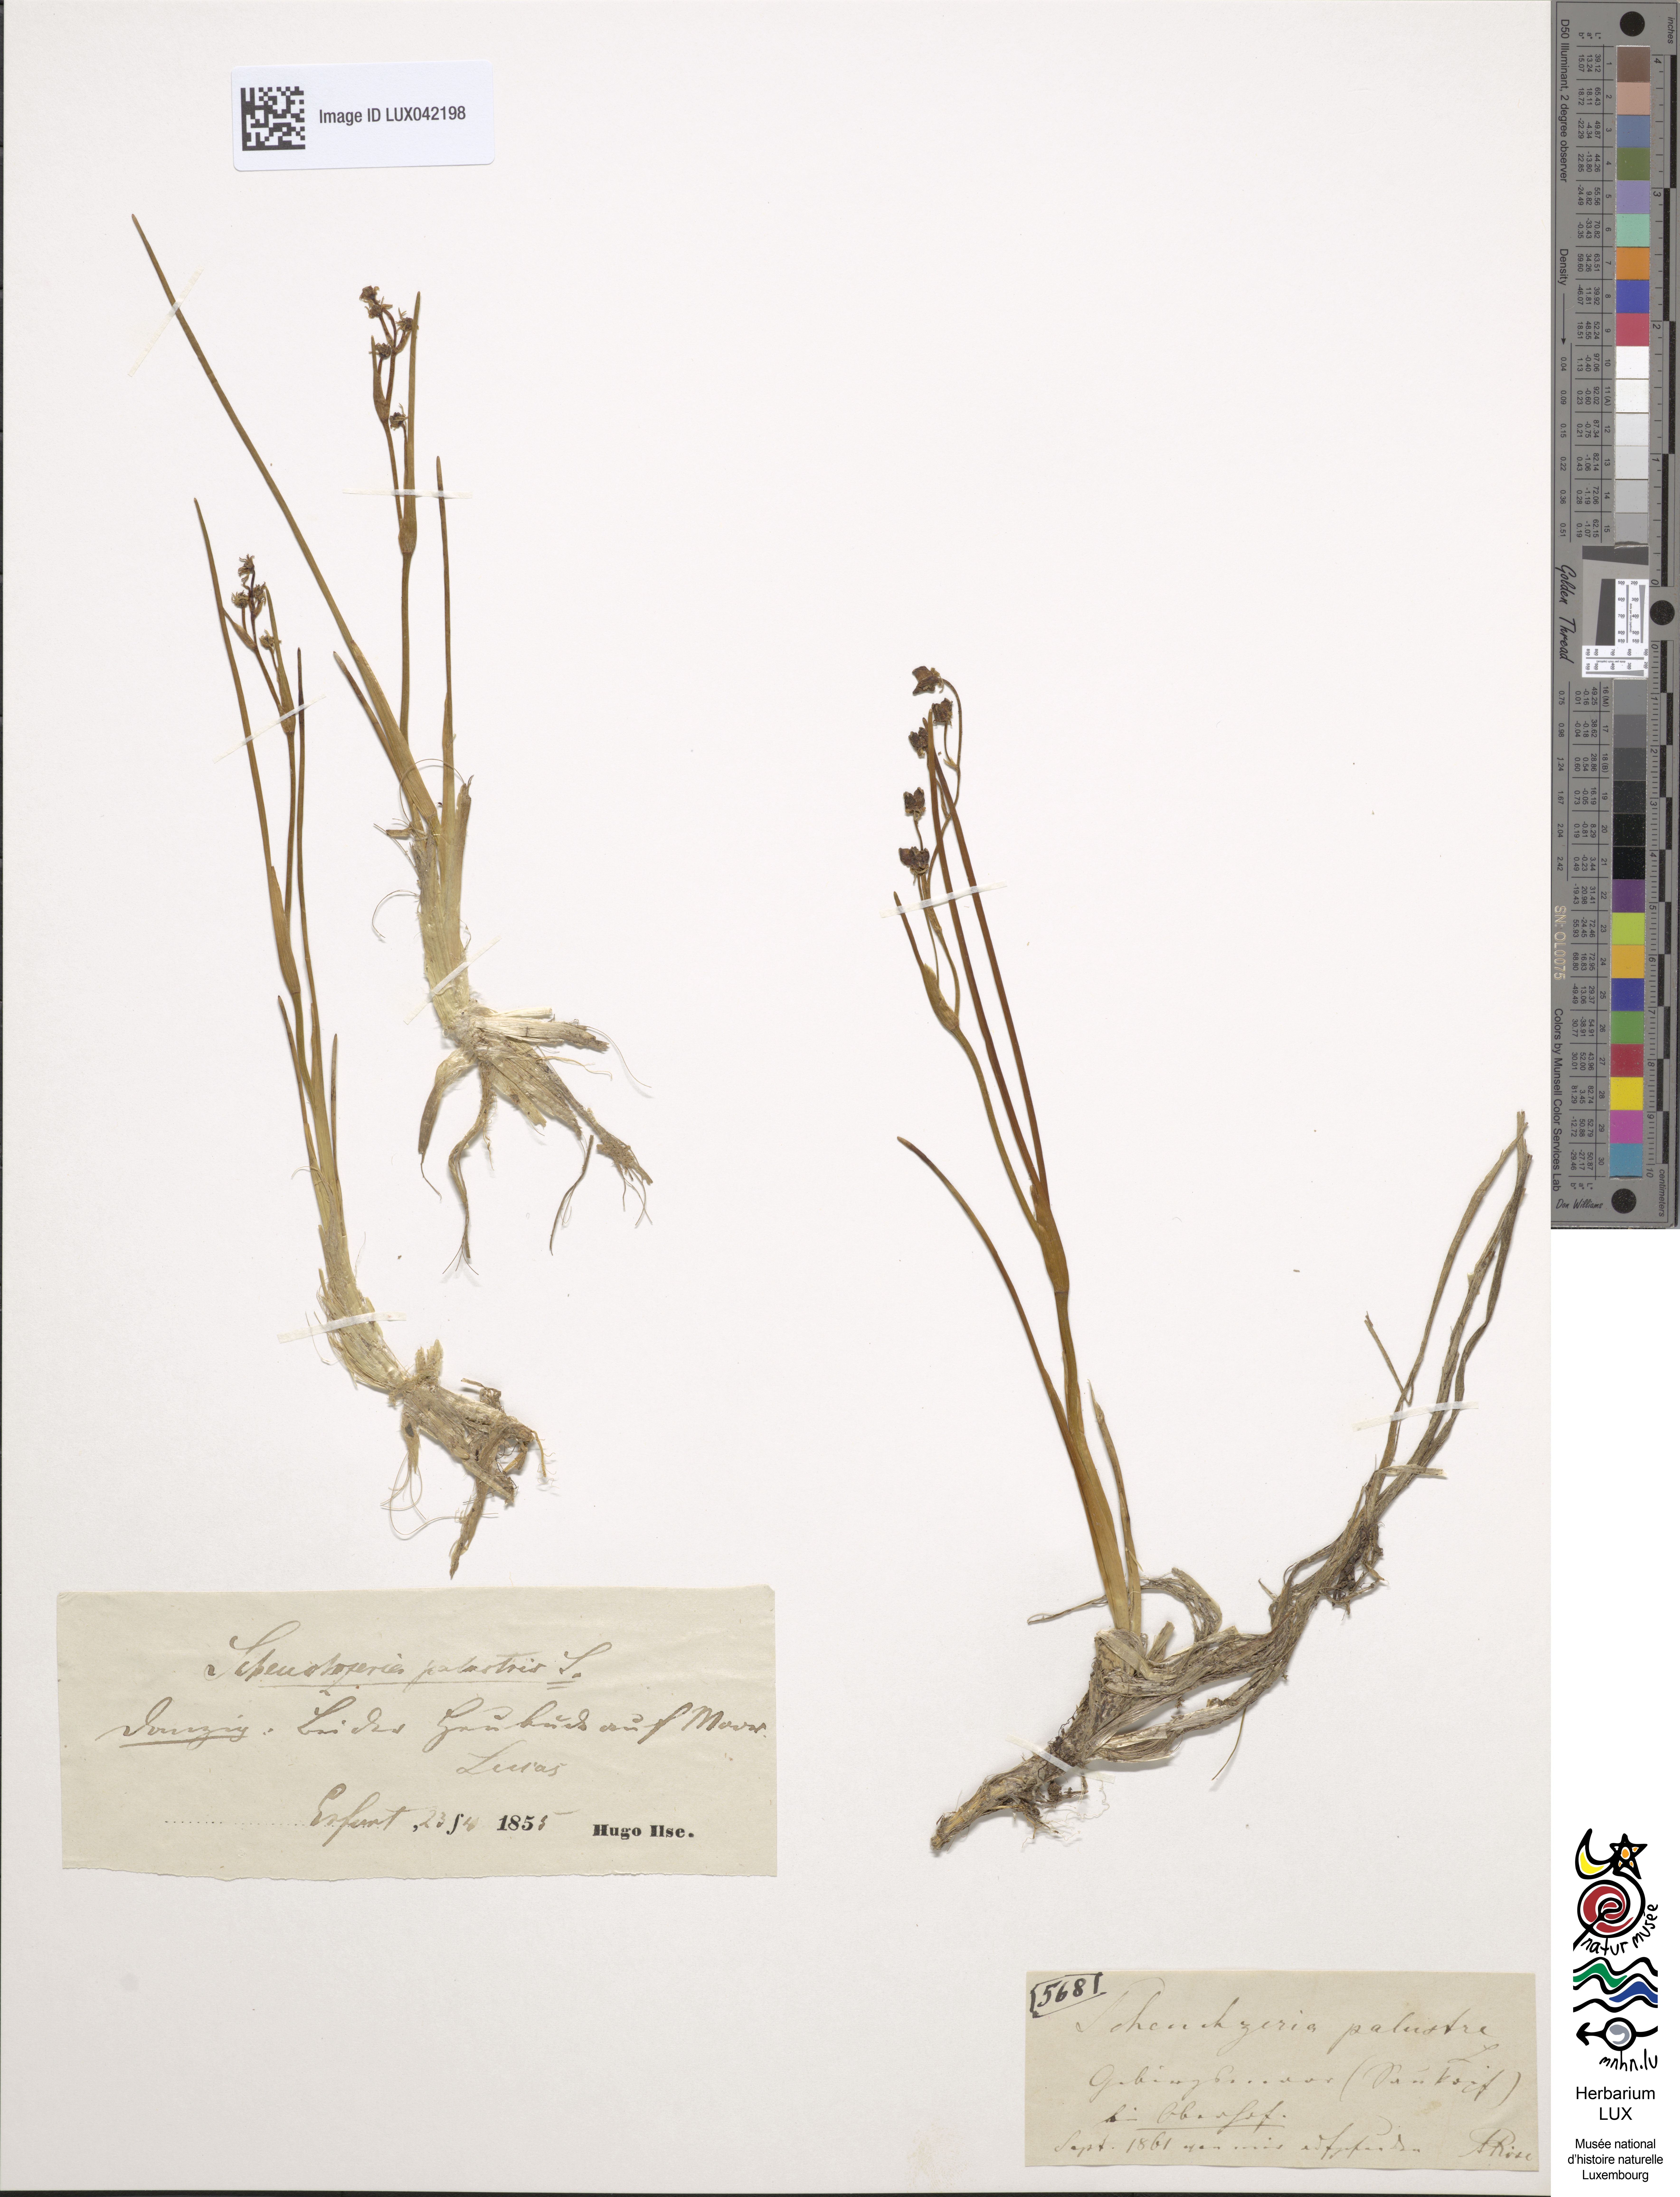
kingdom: Plantae
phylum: Tracheophyta
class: Liliopsida
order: Alismatales
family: Scheuchzeriaceae
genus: Scheuchzeria
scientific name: Scheuchzeria palustris
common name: Rannoch-rush
